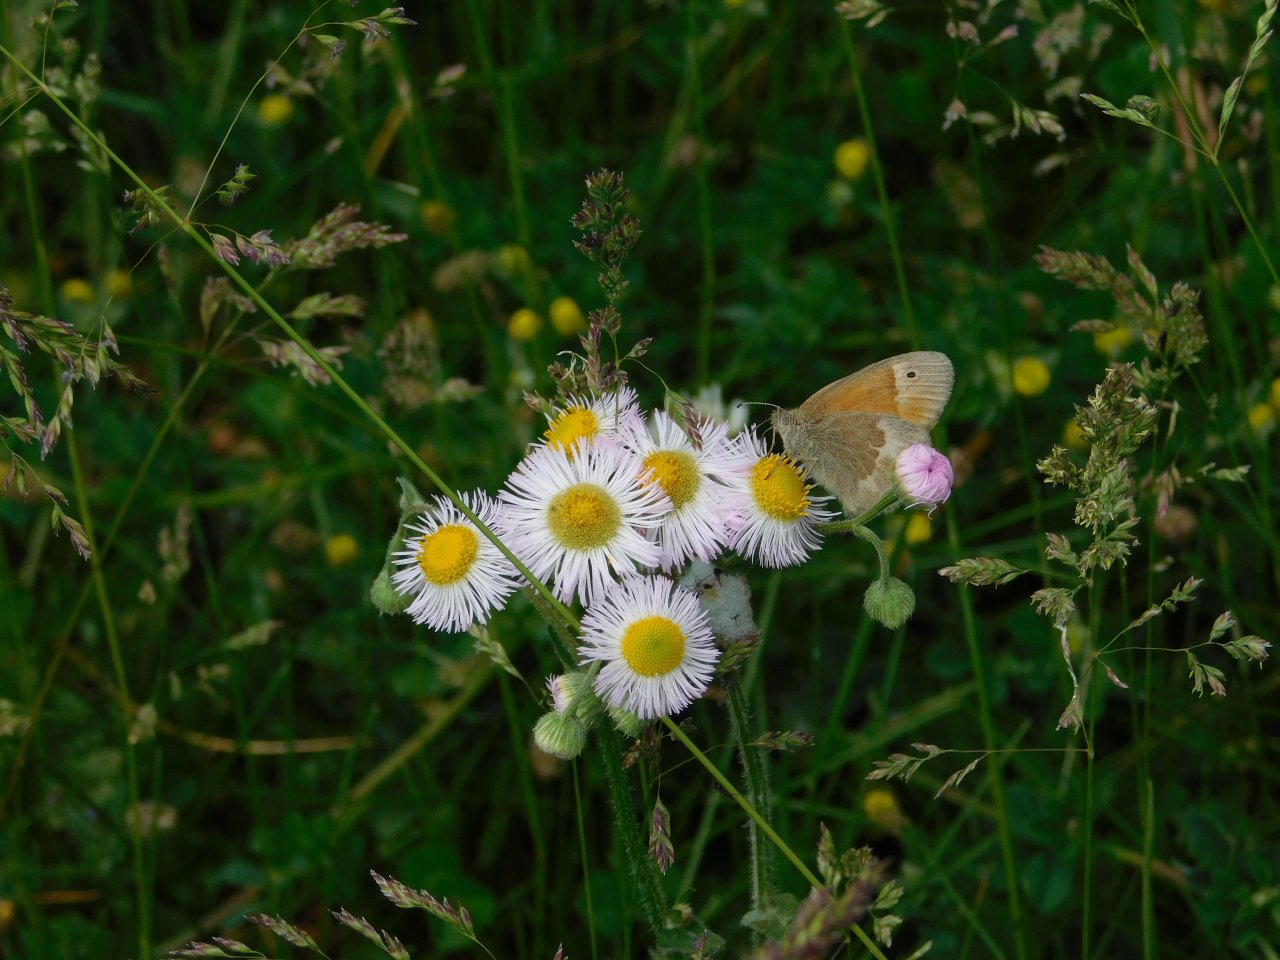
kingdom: Animalia
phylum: Arthropoda
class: Insecta
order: Lepidoptera
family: Nymphalidae
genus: Coenonympha
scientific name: Coenonympha tullia
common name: Large Heath
